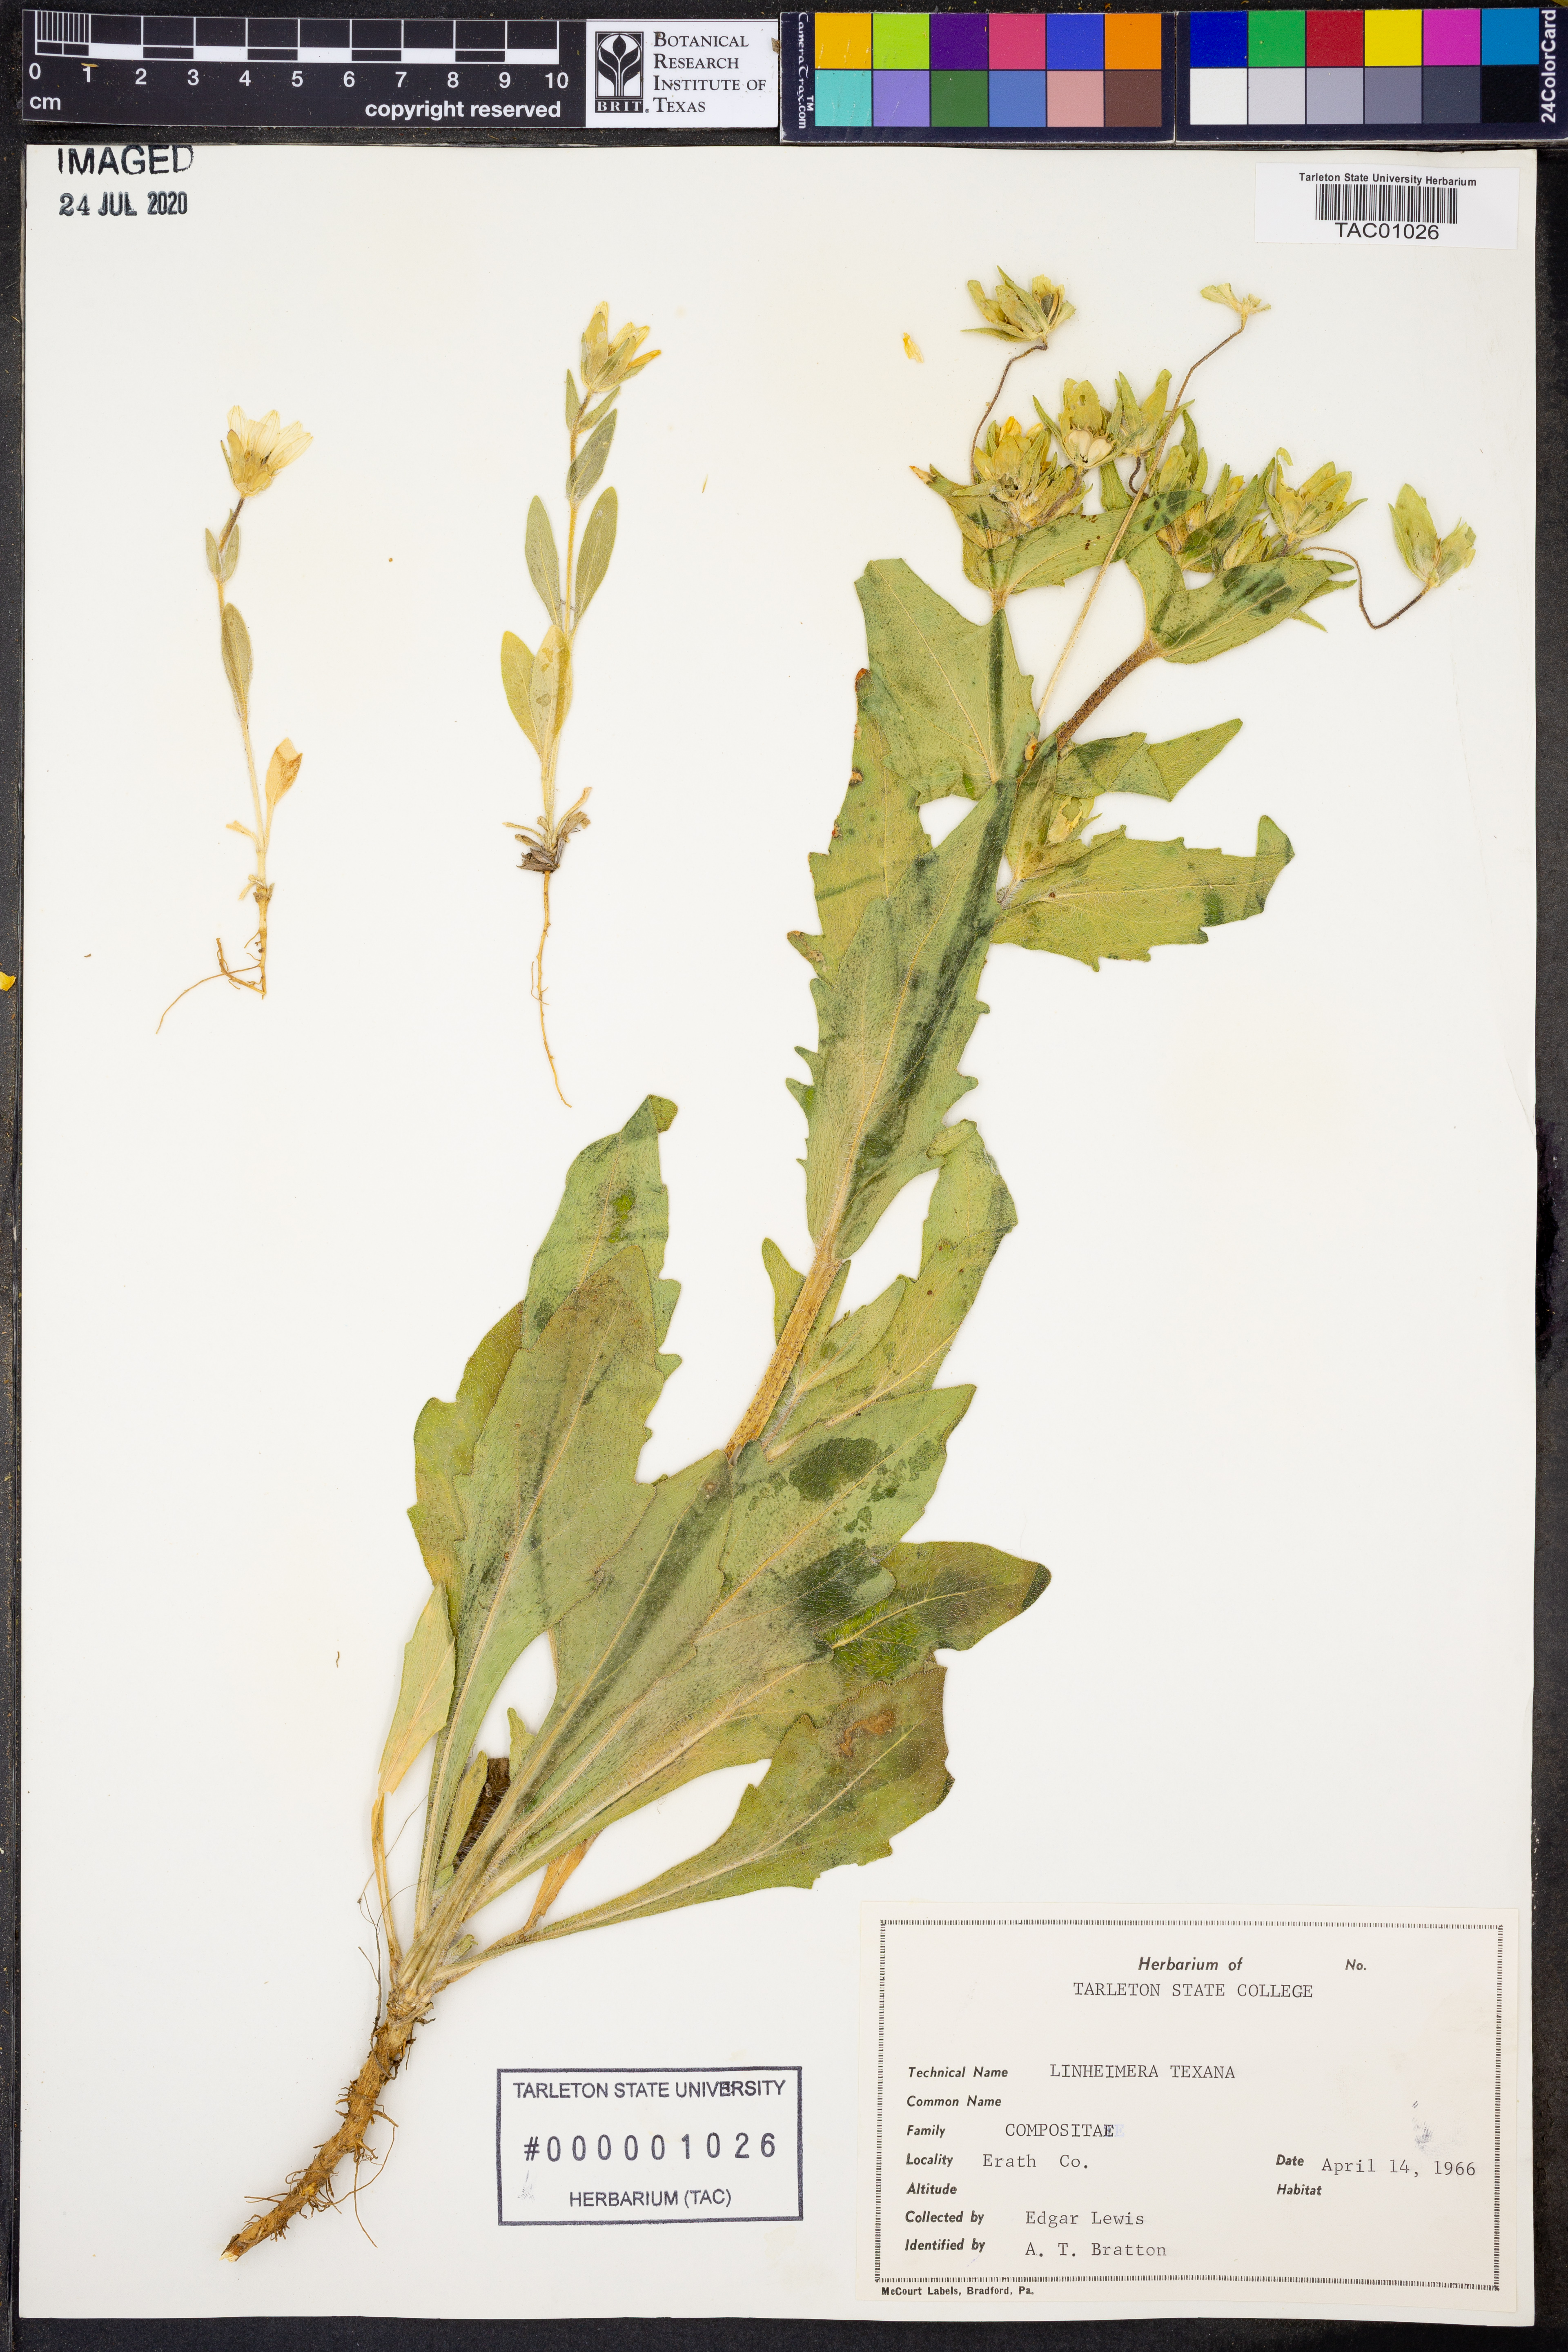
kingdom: Plantae
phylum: Tracheophyta
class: Magnoliopsida
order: Asterales
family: Asteraceae
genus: Lindheimera
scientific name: Lindheimera texana
